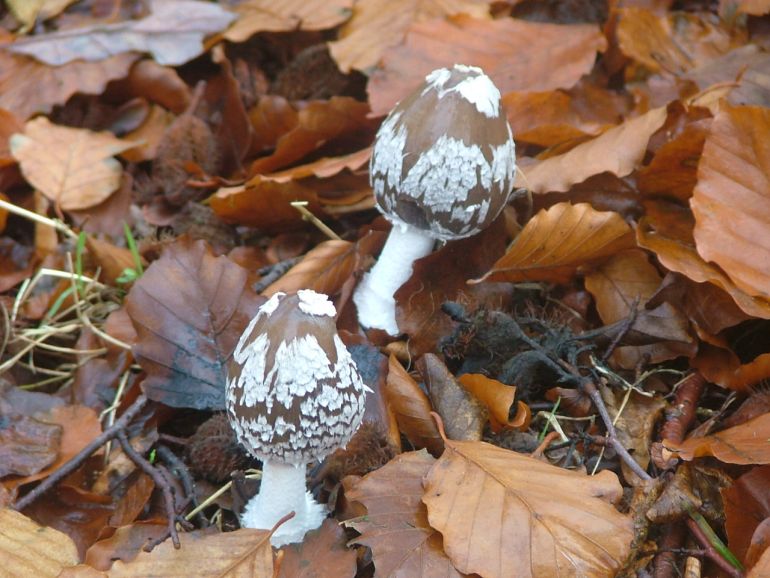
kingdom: Fungi
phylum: Basidiomycota
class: Agaricomycetes
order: Agaricales
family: Psathyrellaceae
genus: Coprinopsis
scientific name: Coprinopsis picacea
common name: skade-blækhat
